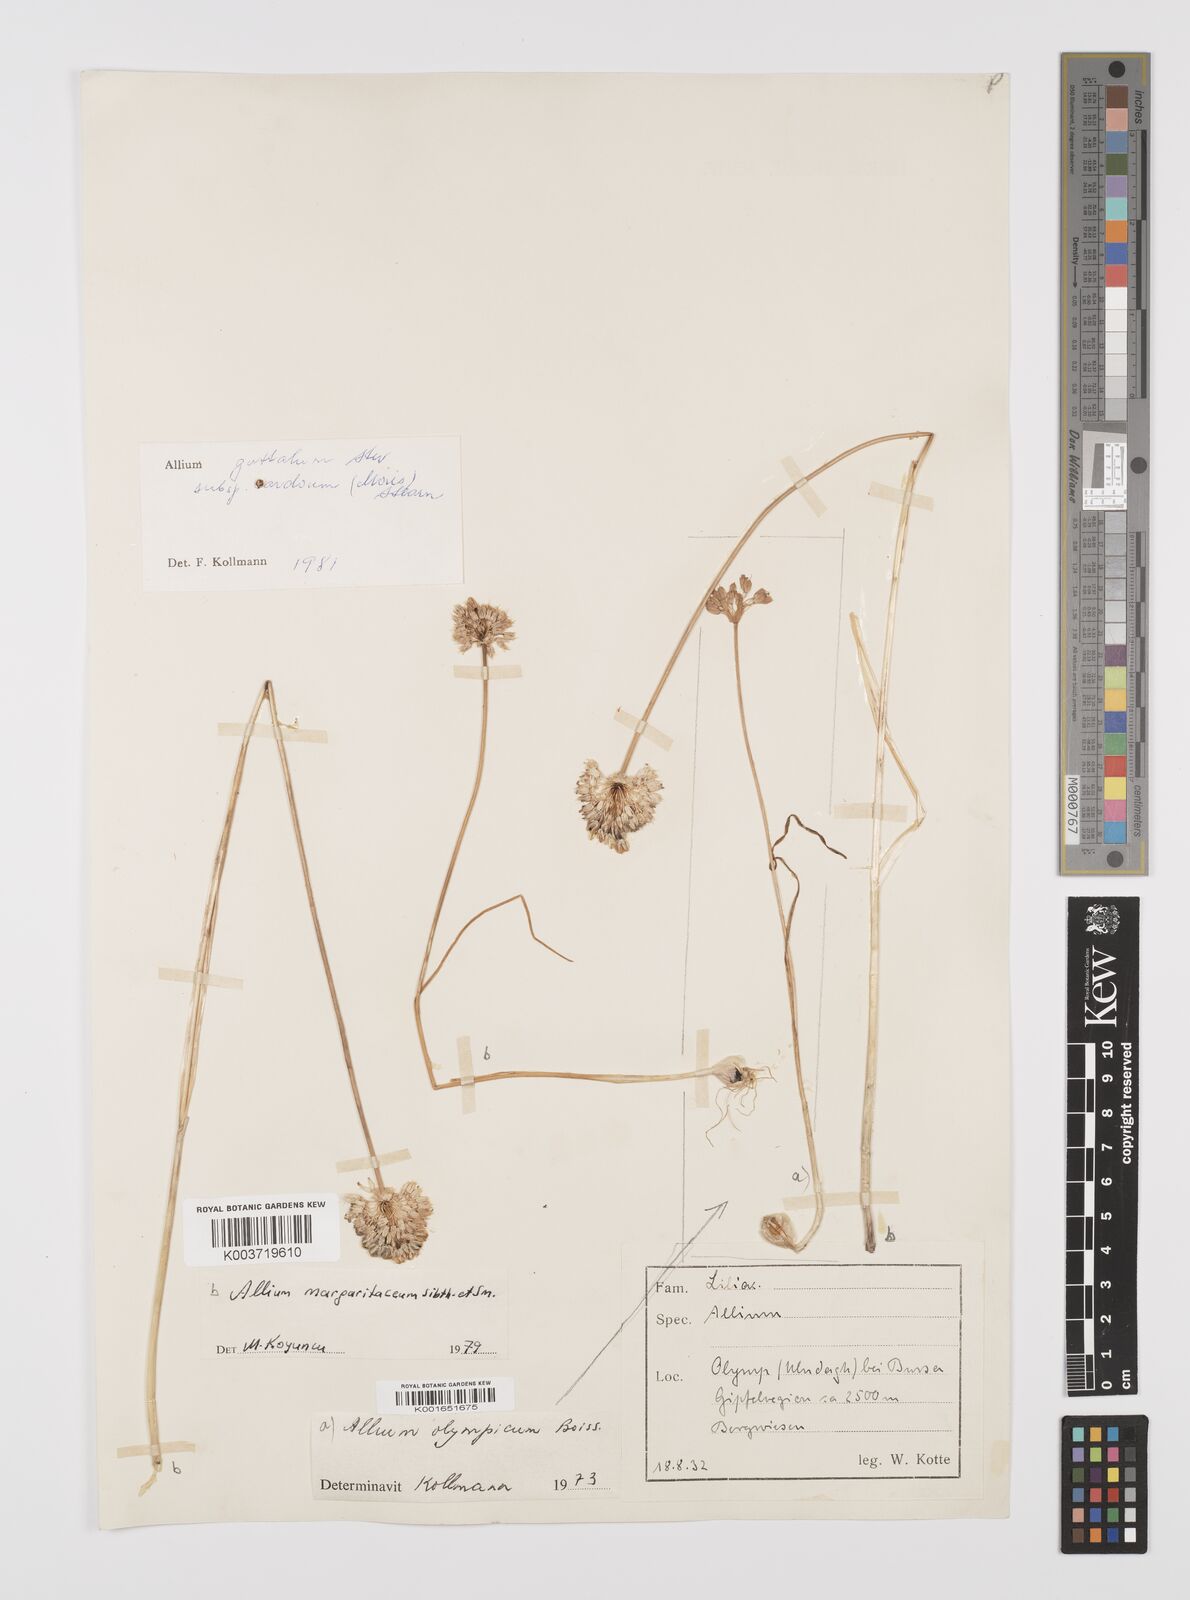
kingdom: Plantae
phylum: Tracheophyta
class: Liliopsida
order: Asparagales
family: Amaryllidaceae
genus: Allium
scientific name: Allium guttatum
